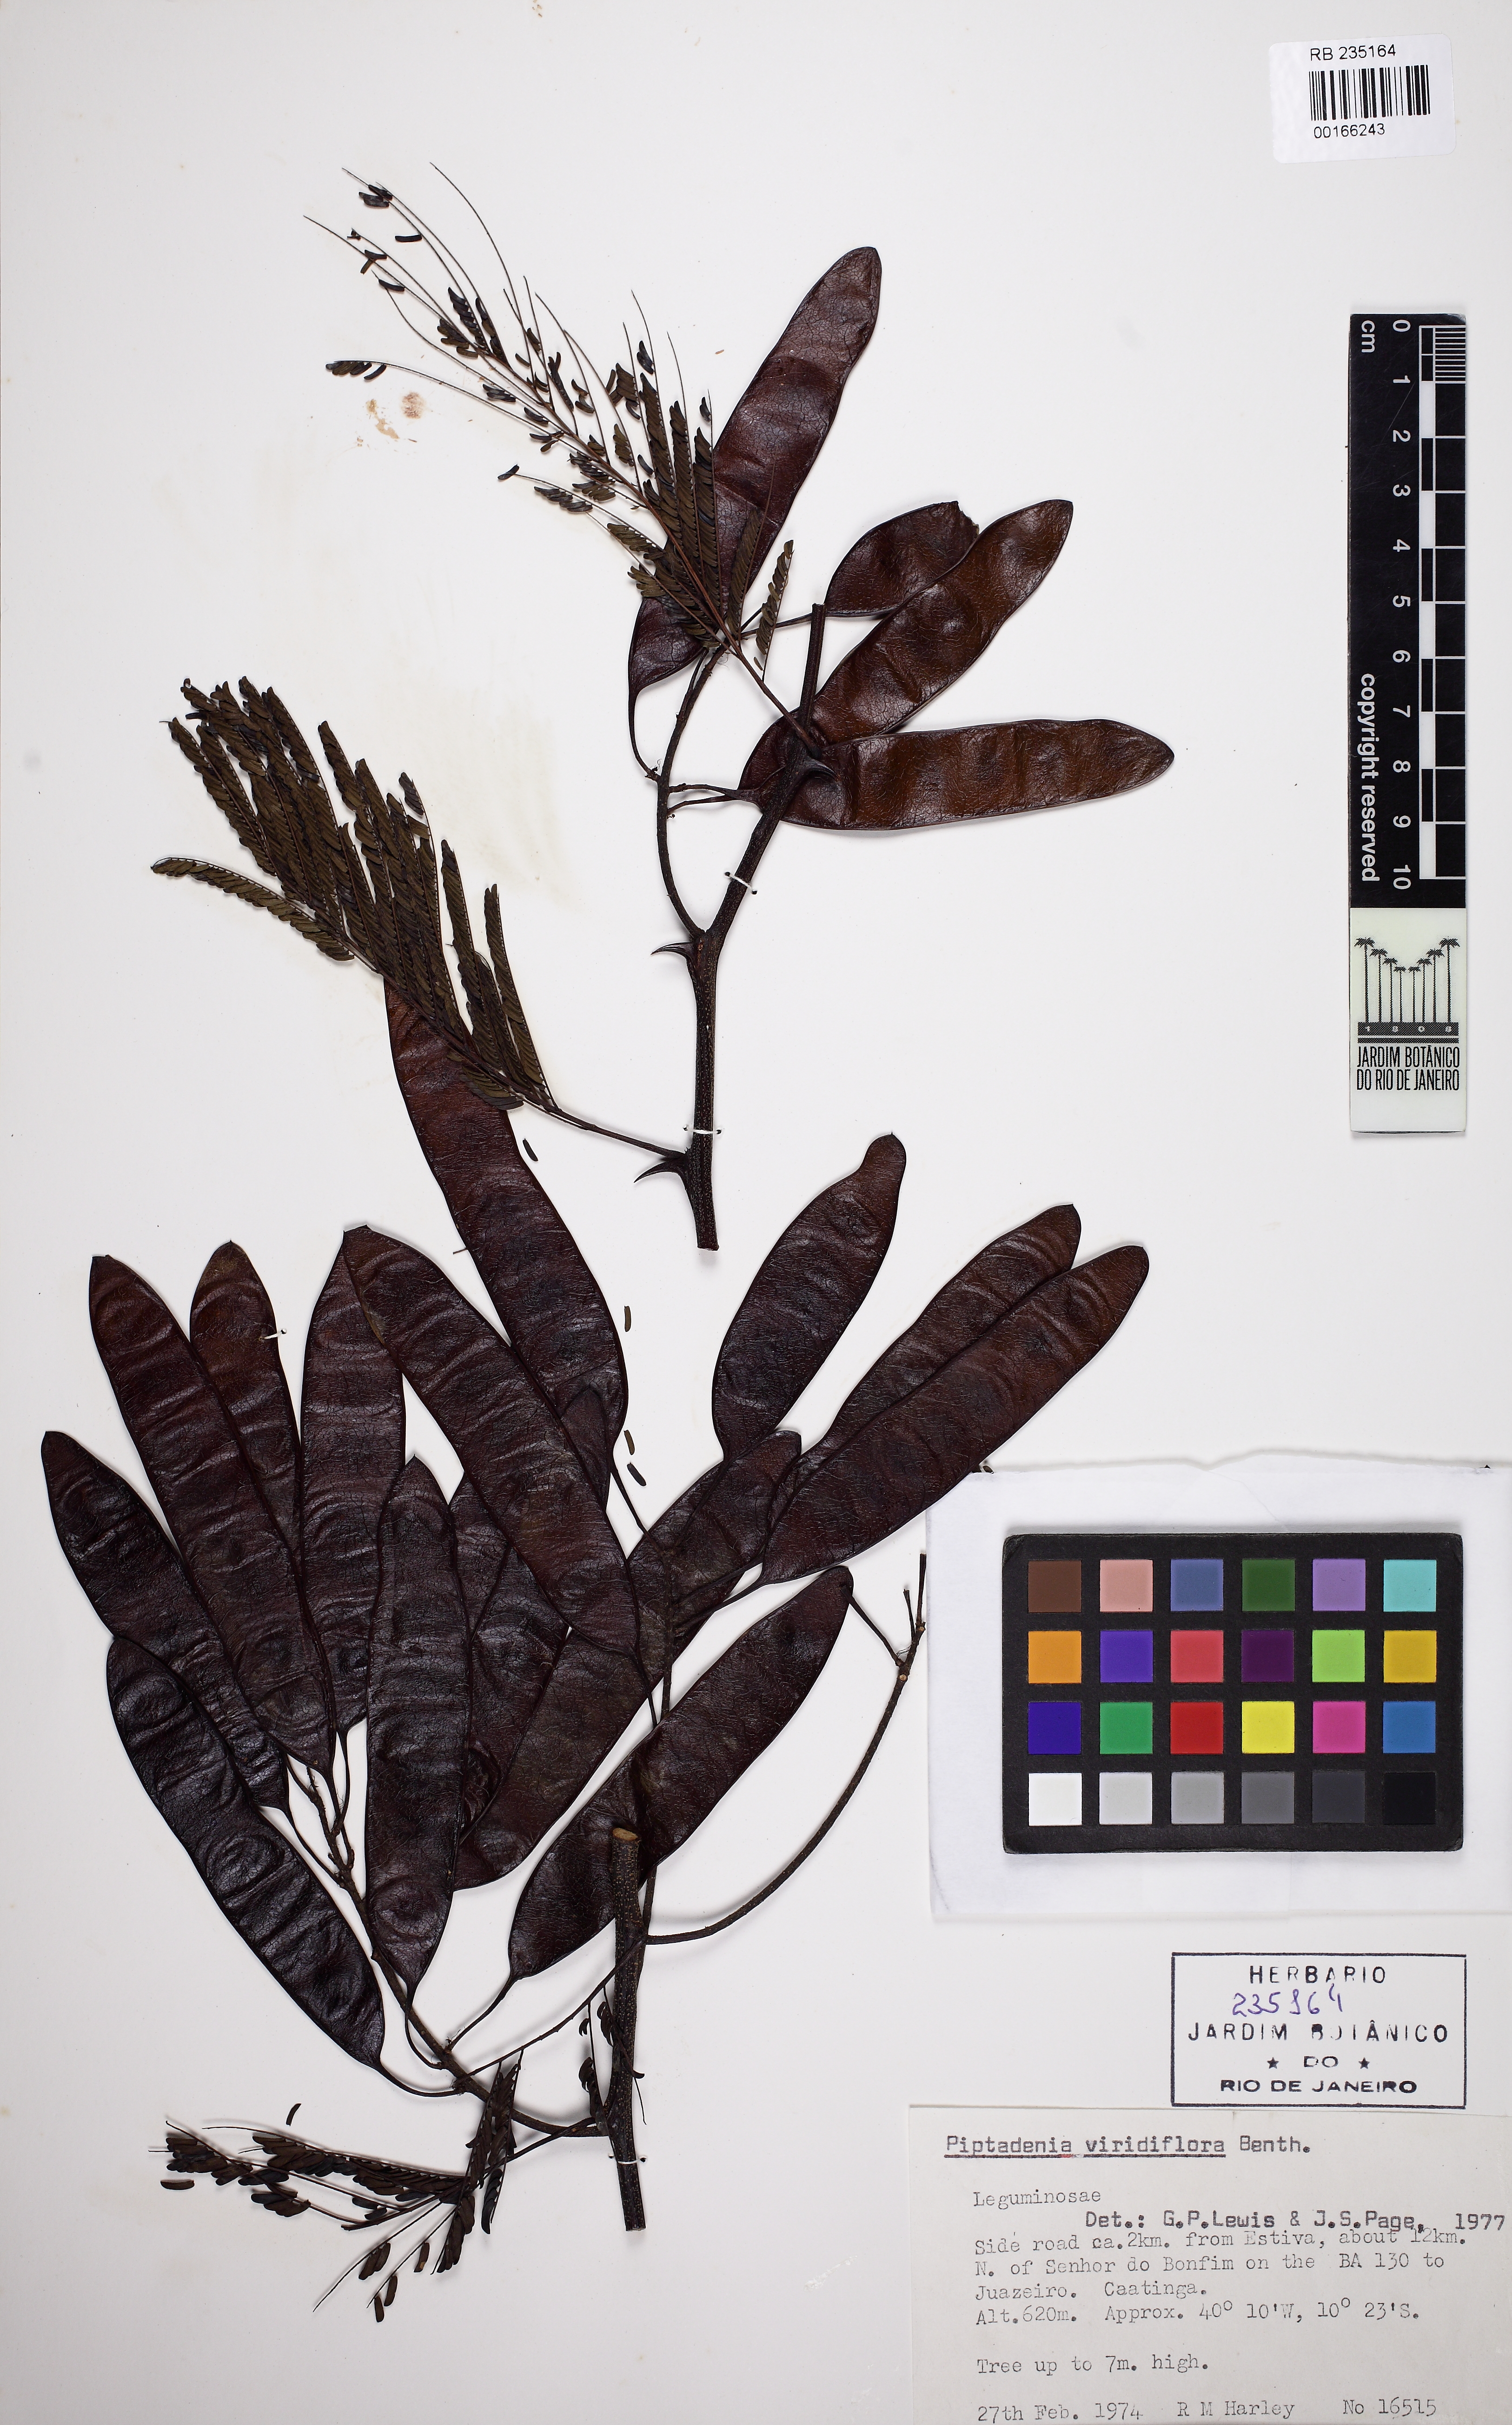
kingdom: Plantae
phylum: Tracheophyta
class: Magnoliopsida
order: Fabales
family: Fabaceae
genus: Lachesiodendron
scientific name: Lachesiodendron viridiflorum
